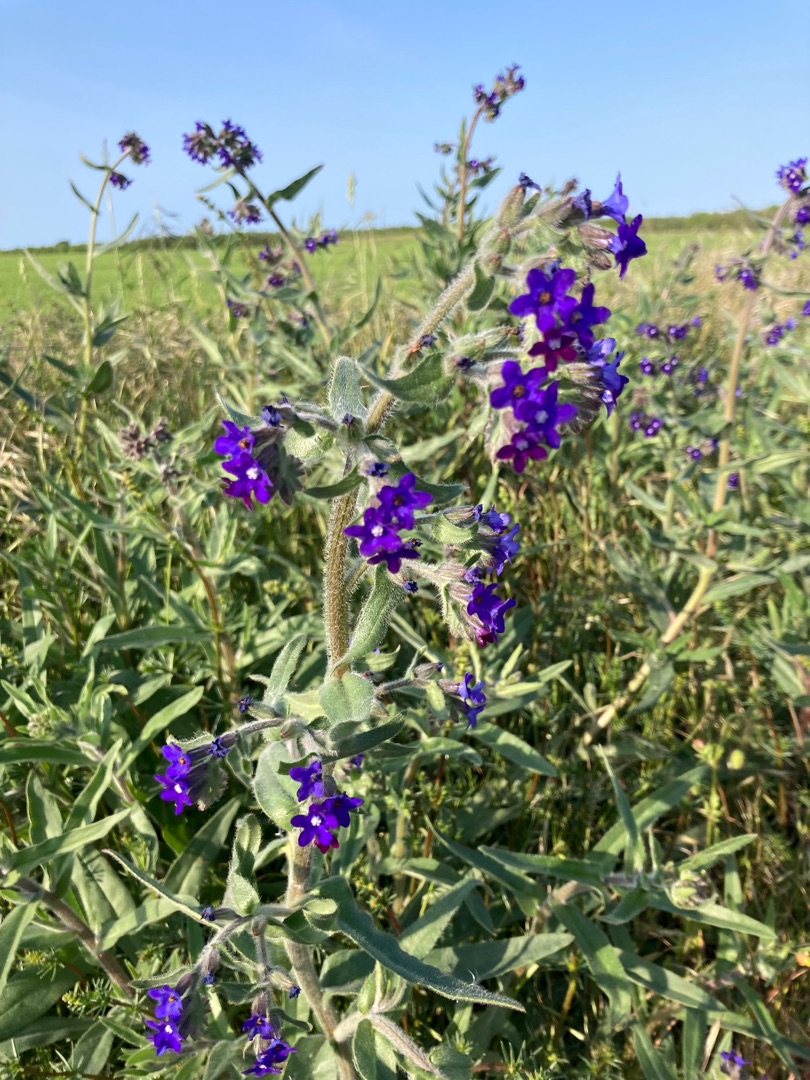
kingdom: Plantae
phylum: Tracheophyta
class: Magnoliopsida
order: Boraginales
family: Boraginaceae
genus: Anchusa
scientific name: Anchusa officinalis
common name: Læge-oksetunge
